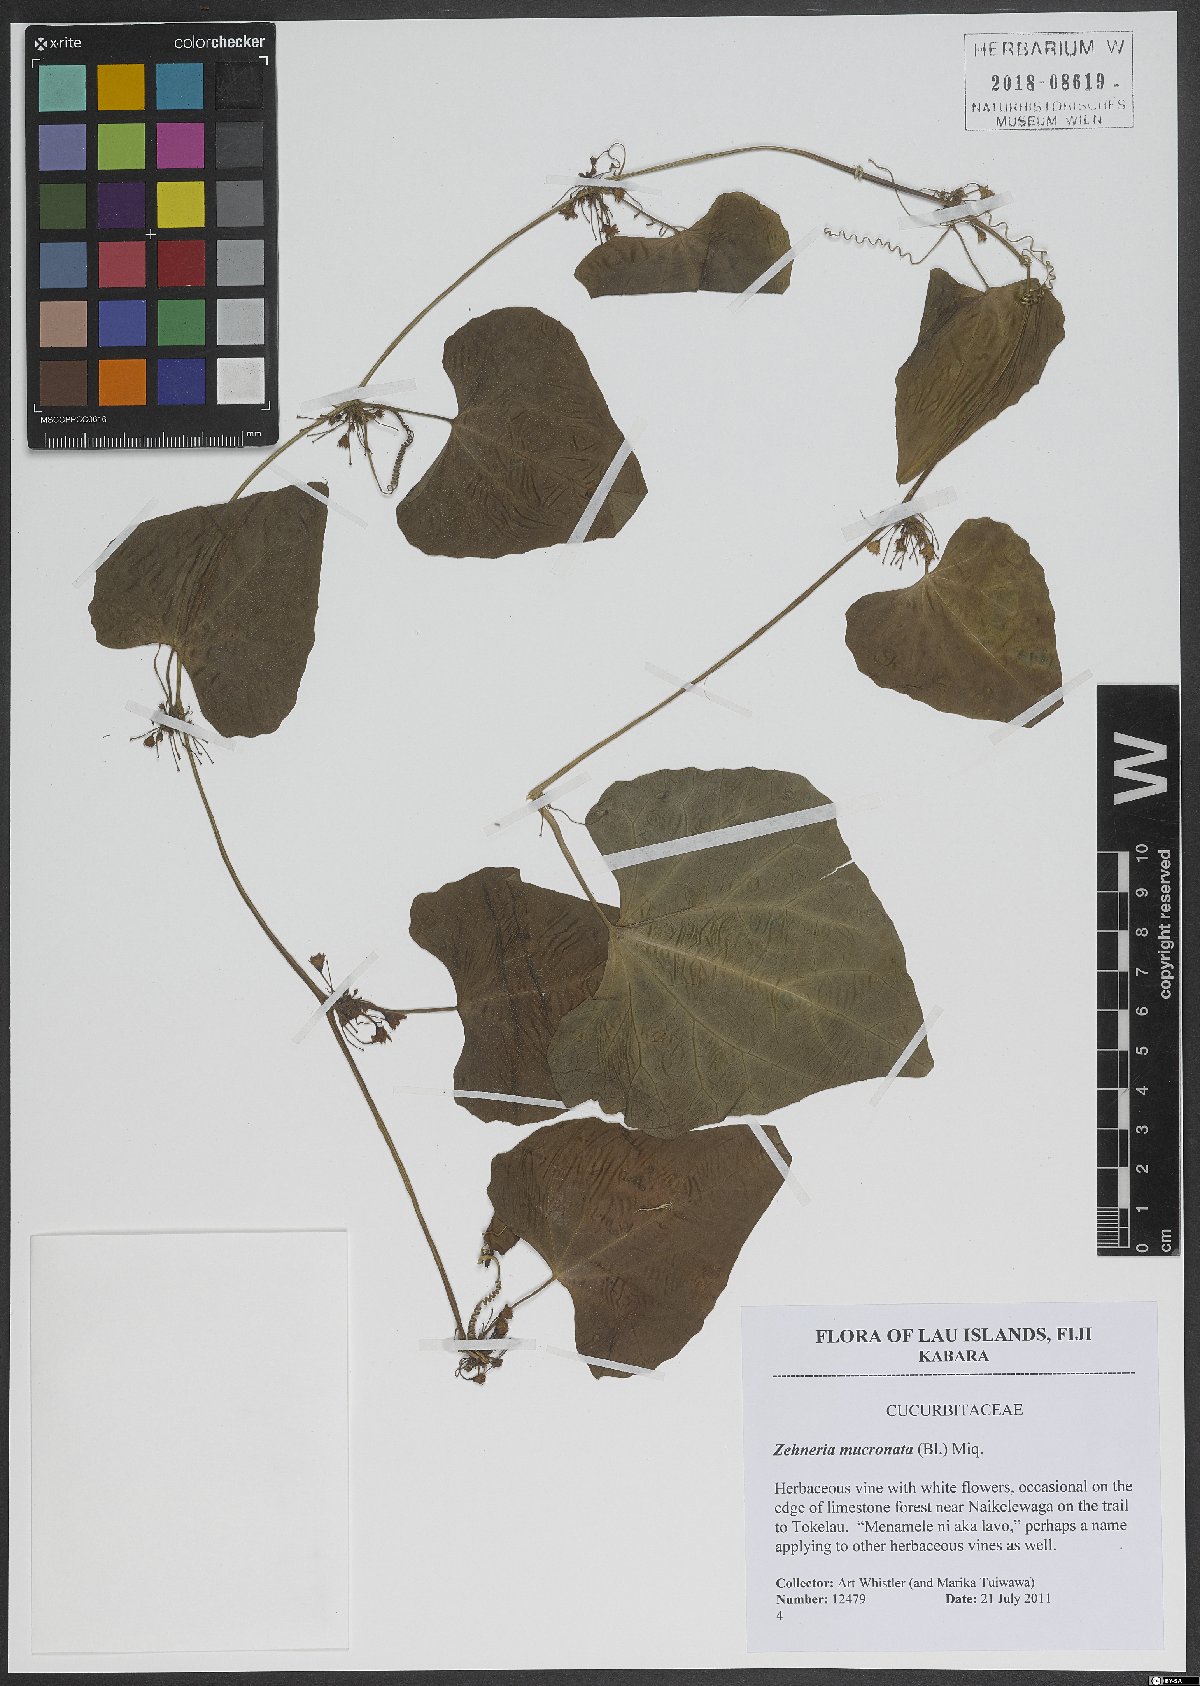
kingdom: Plantae
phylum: Tracheophyta
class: Magnoliopsida
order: Cucurbitales
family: Cucurbitaceae
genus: Zehneria
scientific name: Zehneria mucronata
